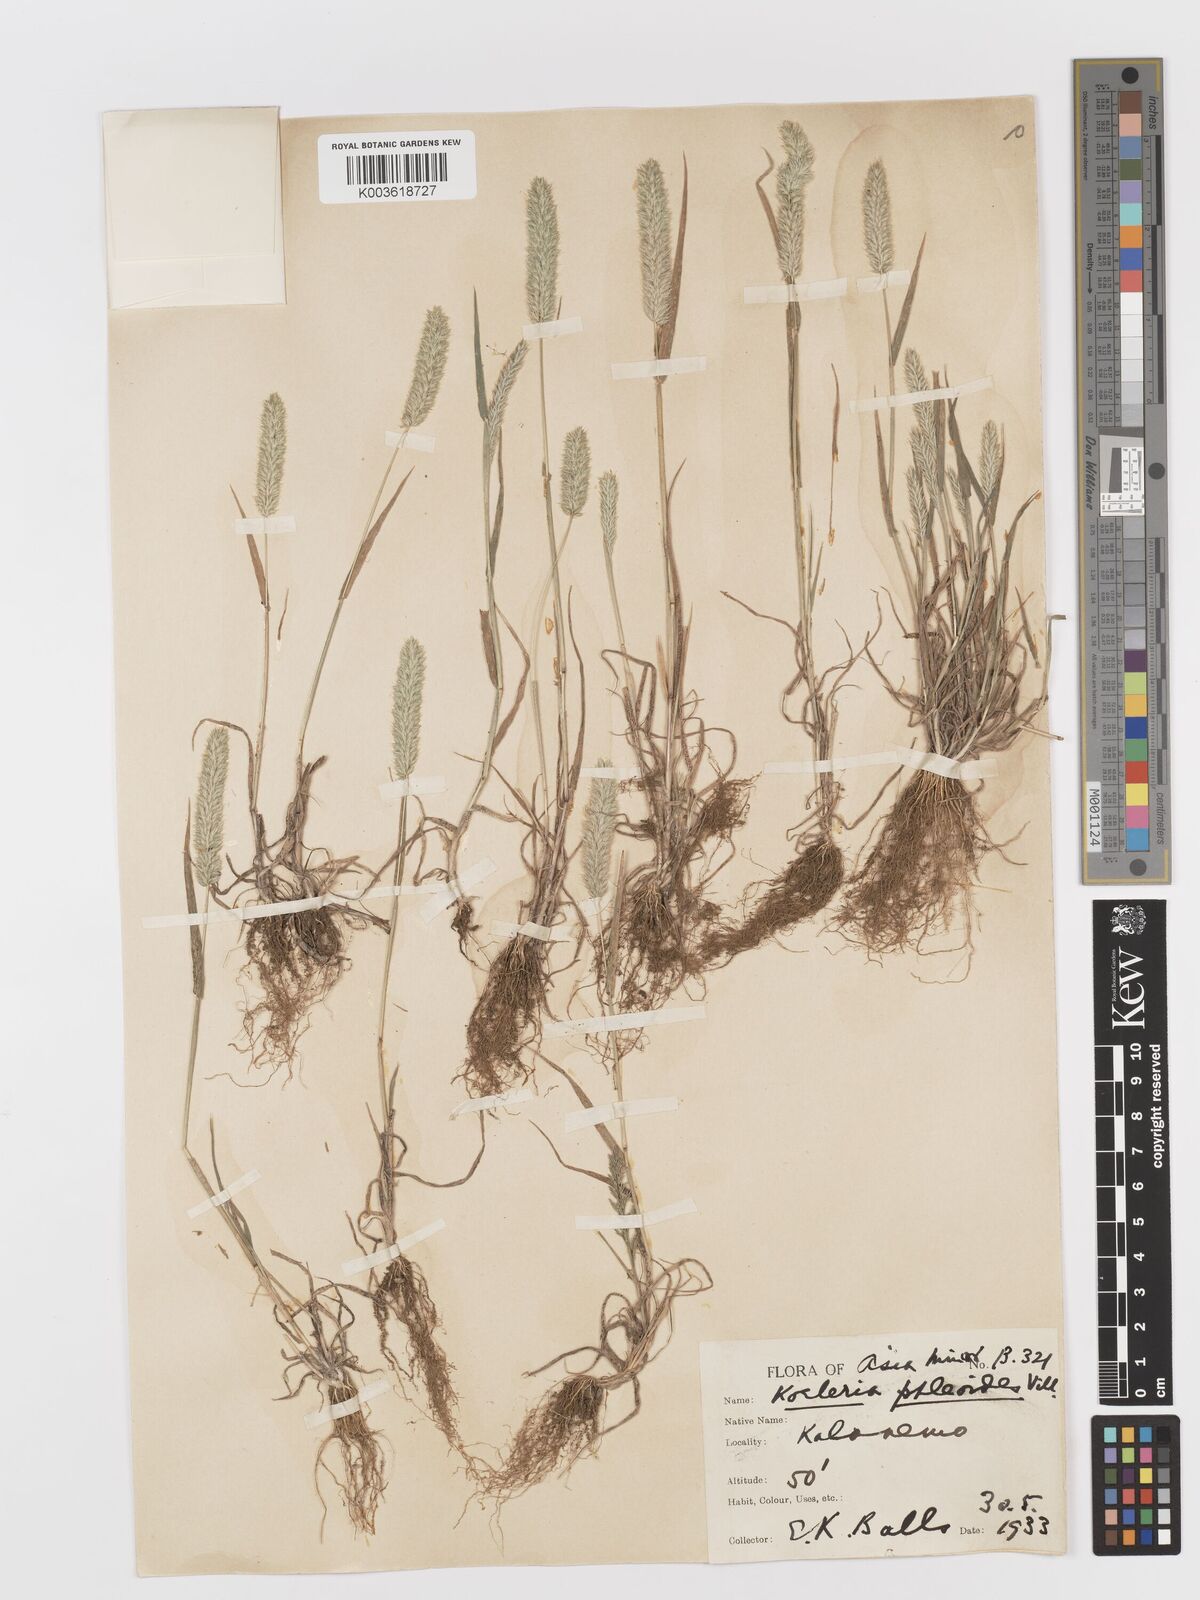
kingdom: Plantae
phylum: Tracheophyta
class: Liliopsida
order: Poales
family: Poaceae
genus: Rostraria
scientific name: Rostraria cristata
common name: Mediterranean hair-grass
